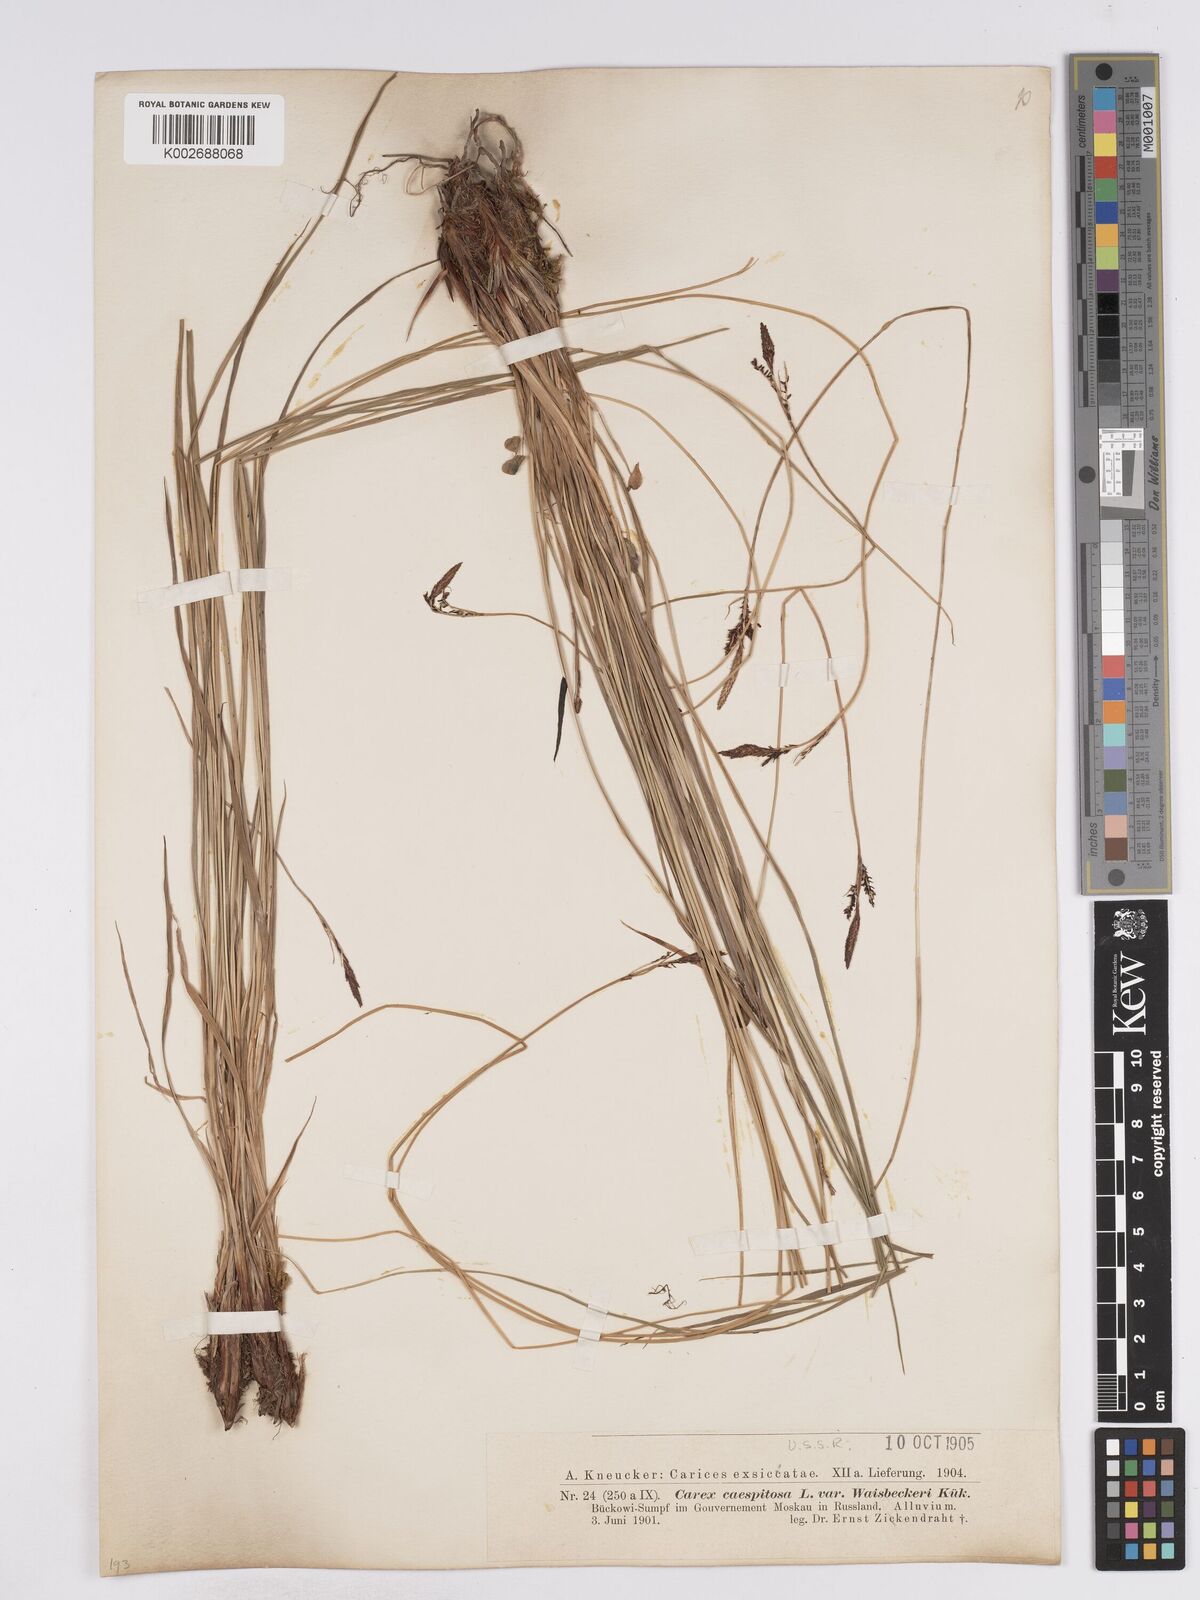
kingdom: Plantae
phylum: Tracheophyta
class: Liliopsida
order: Poales
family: Cyperaceae
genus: Carex
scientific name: Carex cespitosa
